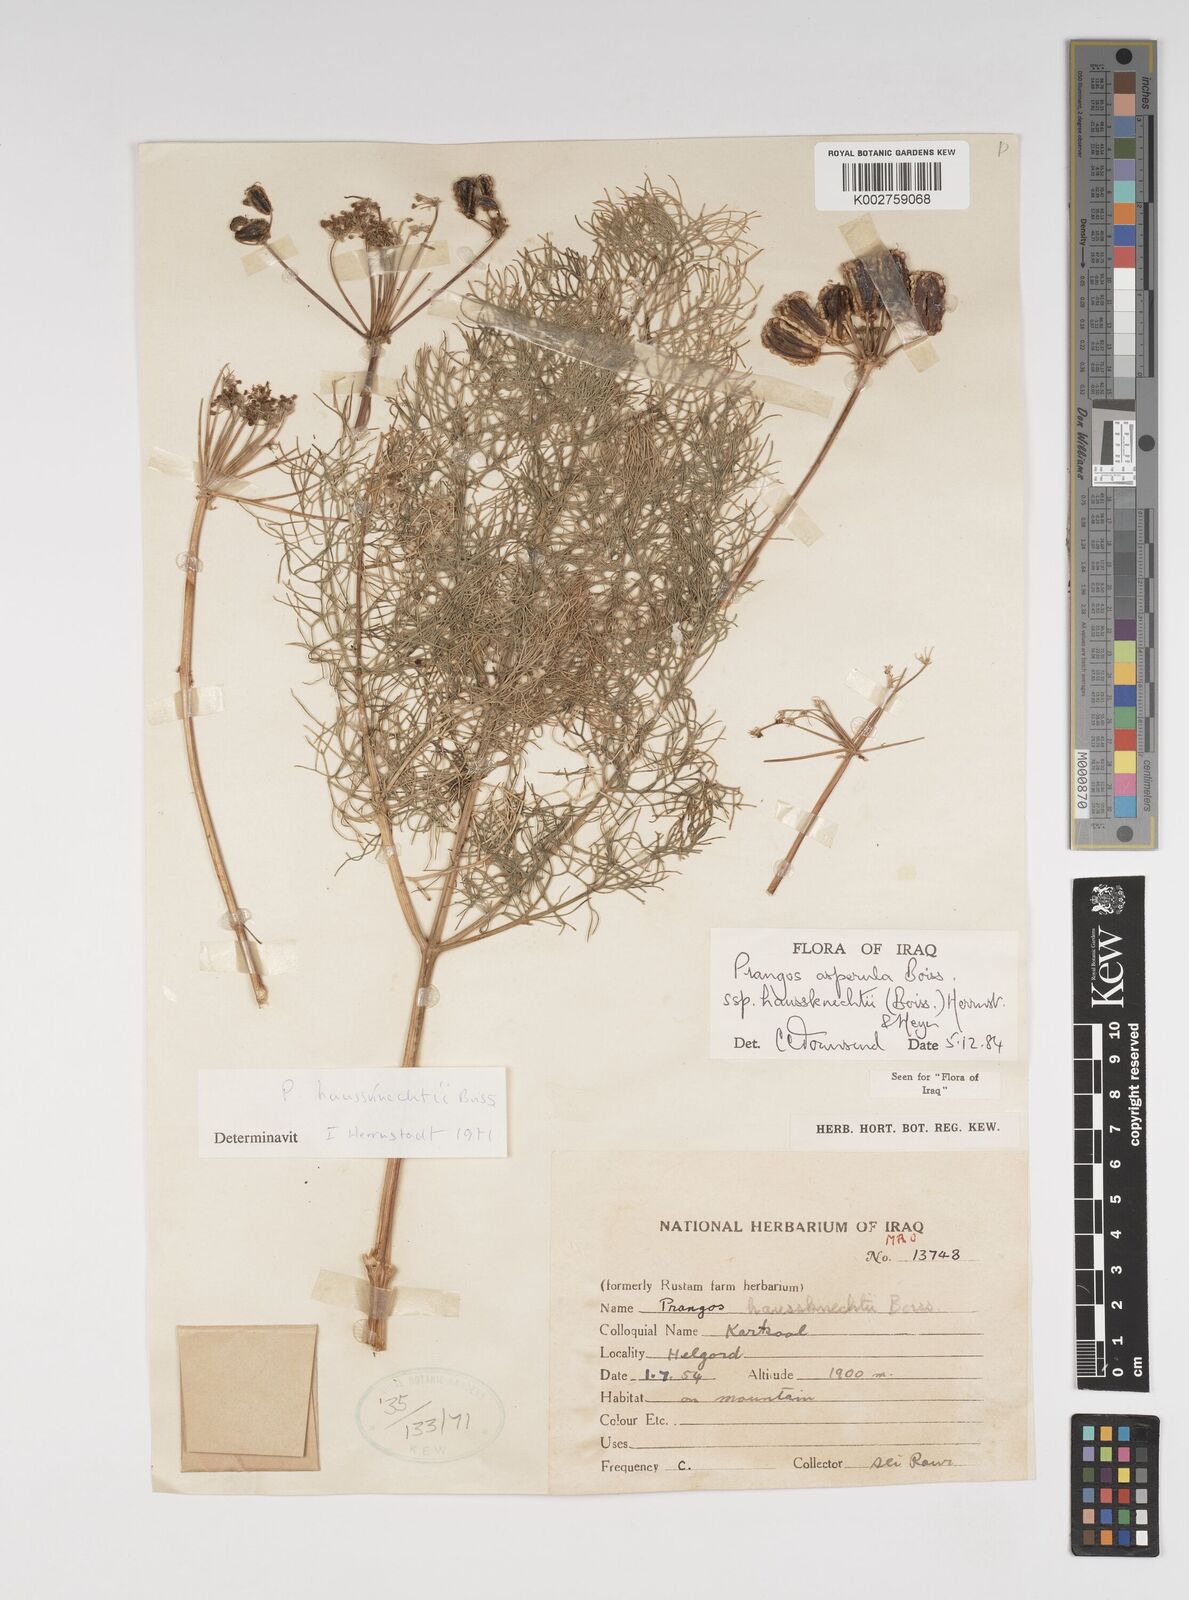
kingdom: Plantae
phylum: Tracheophyta
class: Magnoliopsida
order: Apiales
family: Apiaceae
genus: Prangos
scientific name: Prangos asperula
